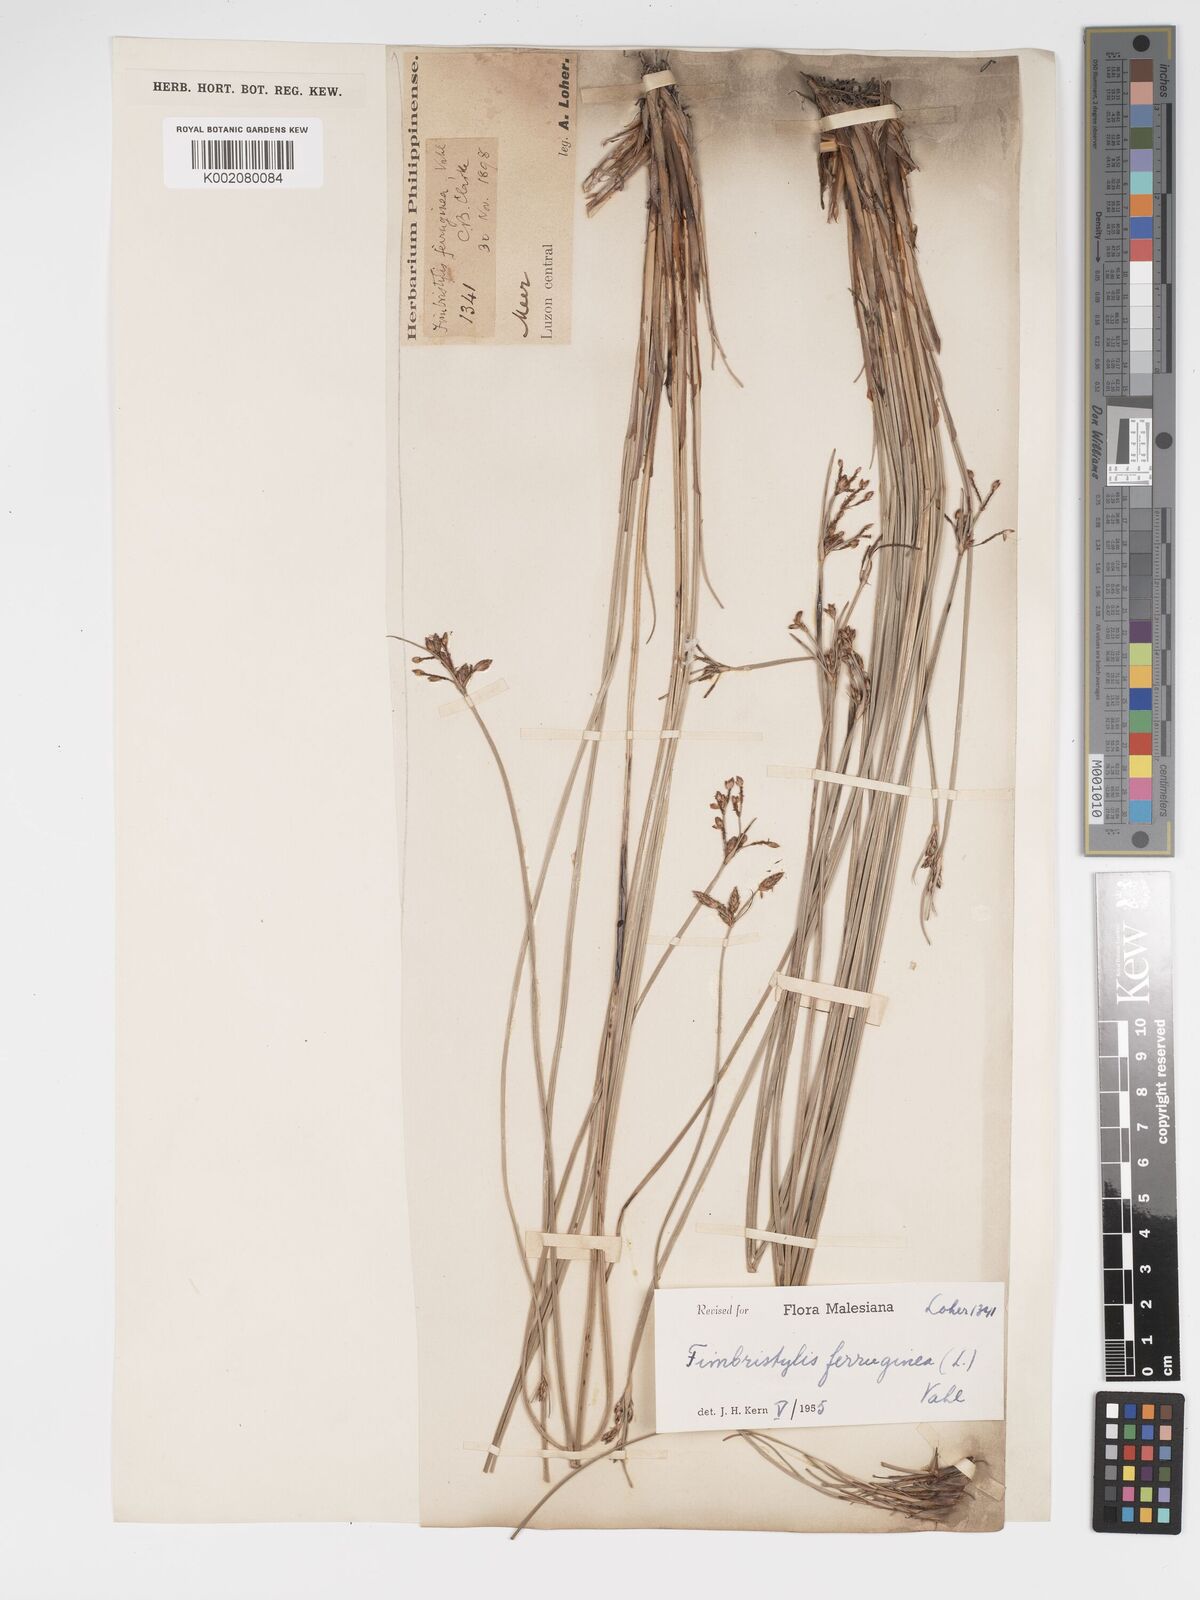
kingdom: Plantae
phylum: Tracheophyta
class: Liliopsida
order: Poales
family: Cyperaceae
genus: Fimbristylis
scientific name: Fimbristylis ferruginea
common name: West indian fimbry
